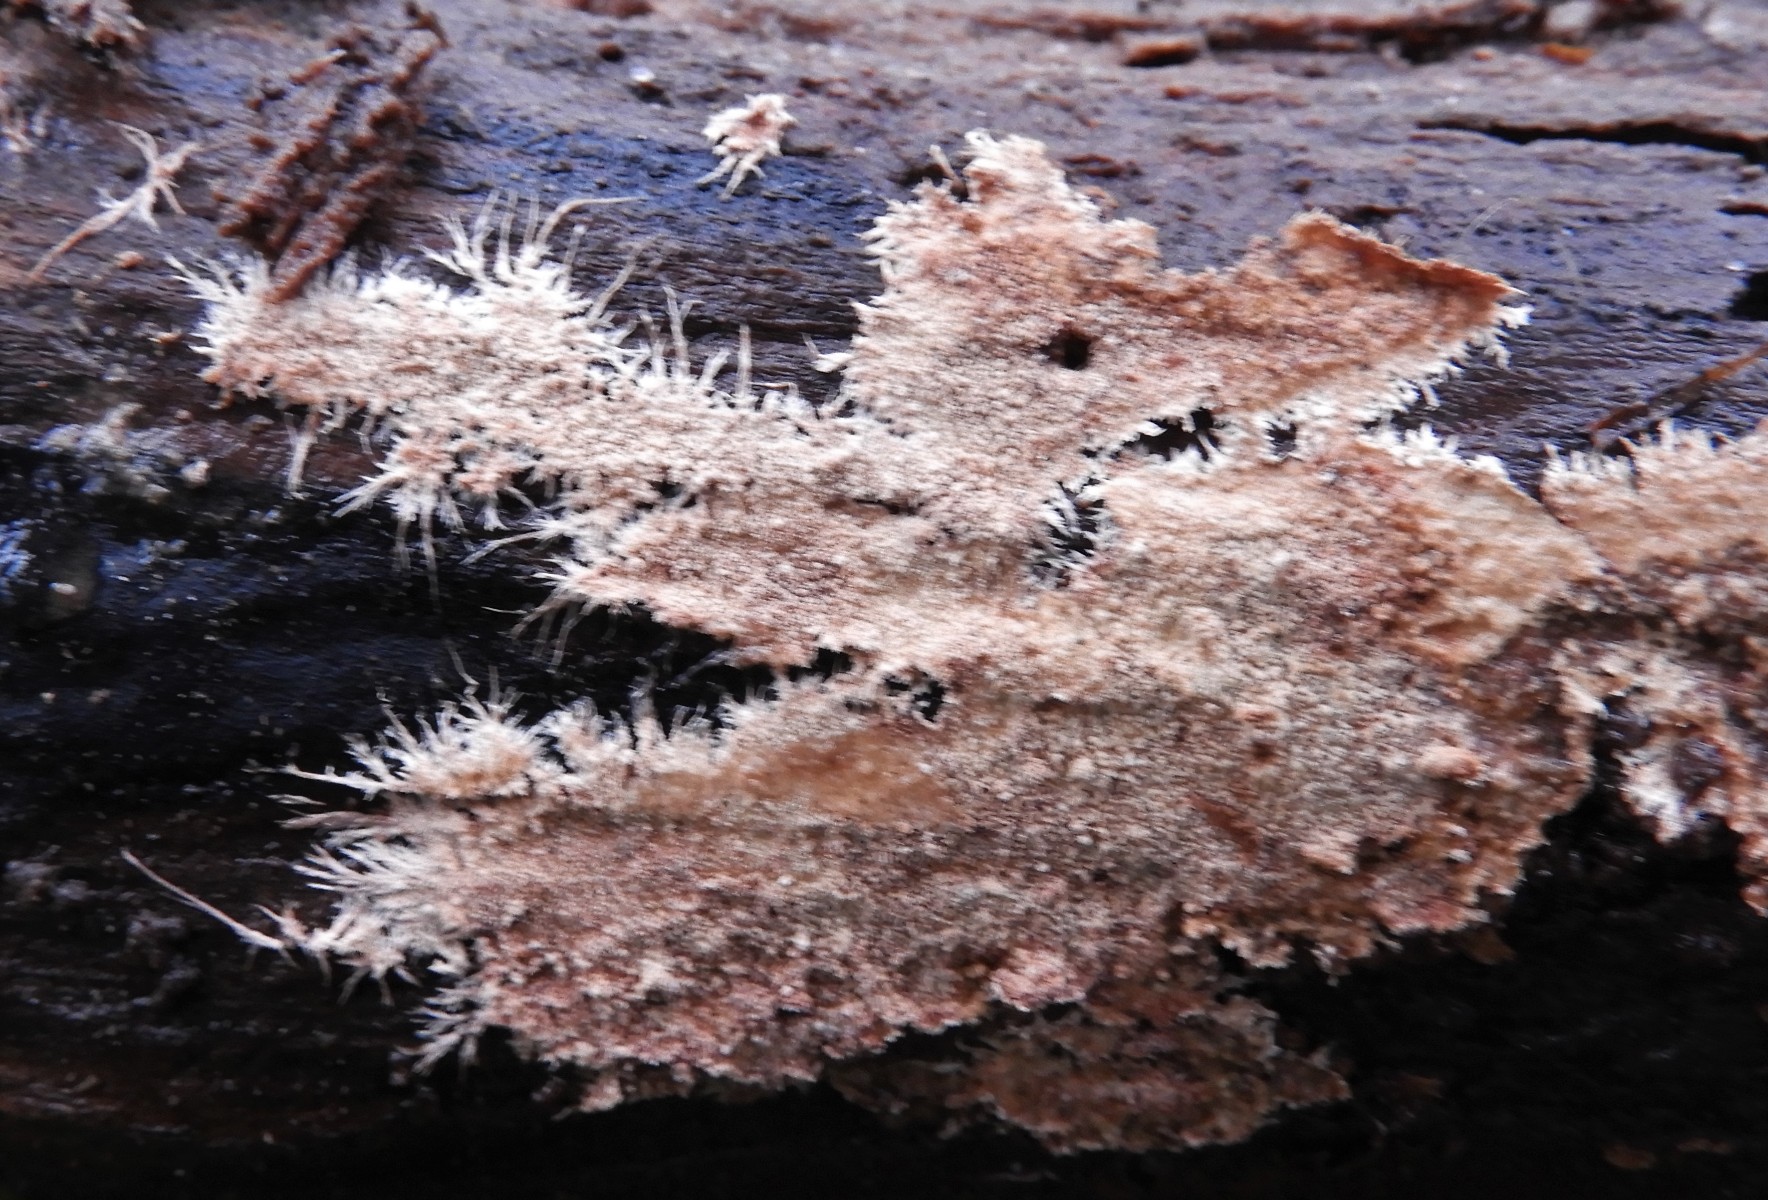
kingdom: Fungi
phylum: Basidiomycota
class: Agaricomycetes
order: Polyporales
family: Steccherinaceae
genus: Steccherinum
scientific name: Steccherinum fimbriatum
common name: trådet skønpig
